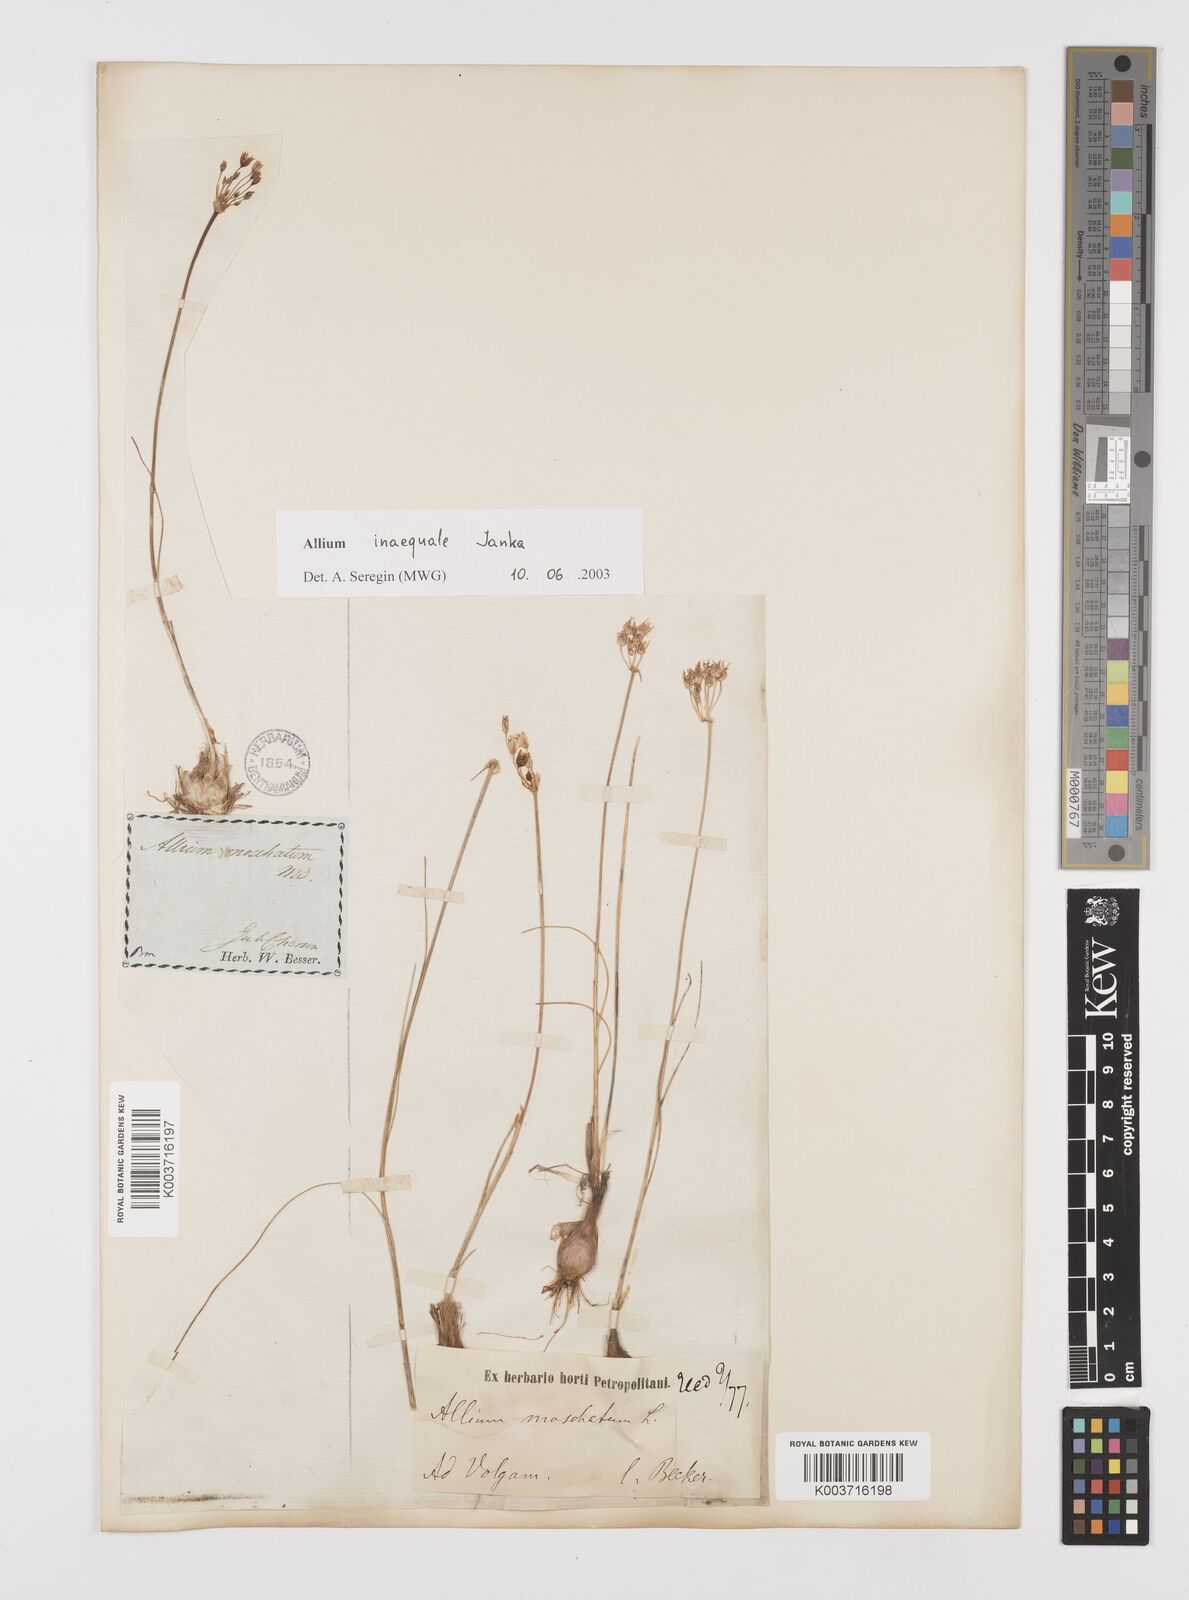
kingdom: Plantae
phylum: Tracheophyta
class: Liliopsida
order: Asparagales
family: Amaryllidaceae
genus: Allium
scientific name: Allium inaequale
